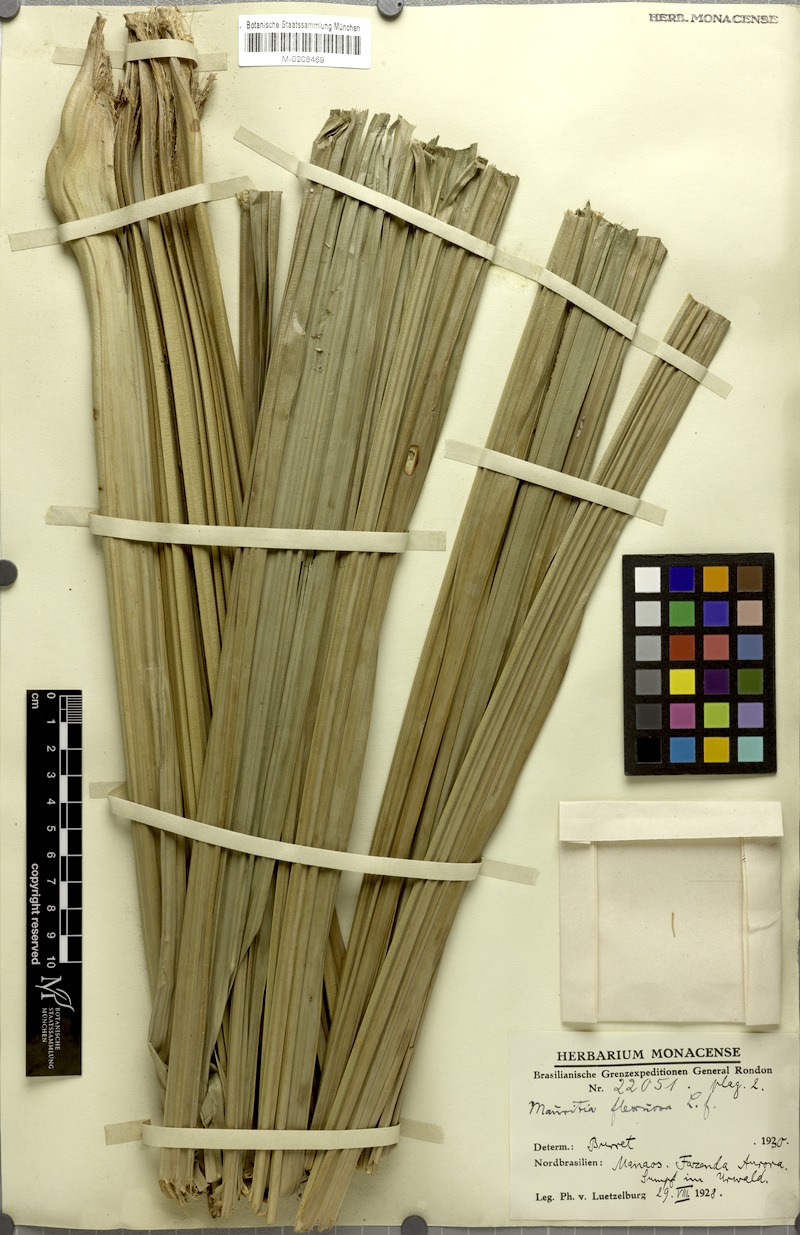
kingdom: Plantae
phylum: Tracheophyta
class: Liliopsida
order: Arecales
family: Arecaceae
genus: Mauritia
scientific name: Mauritia flexuosa
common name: Tree-of-life
